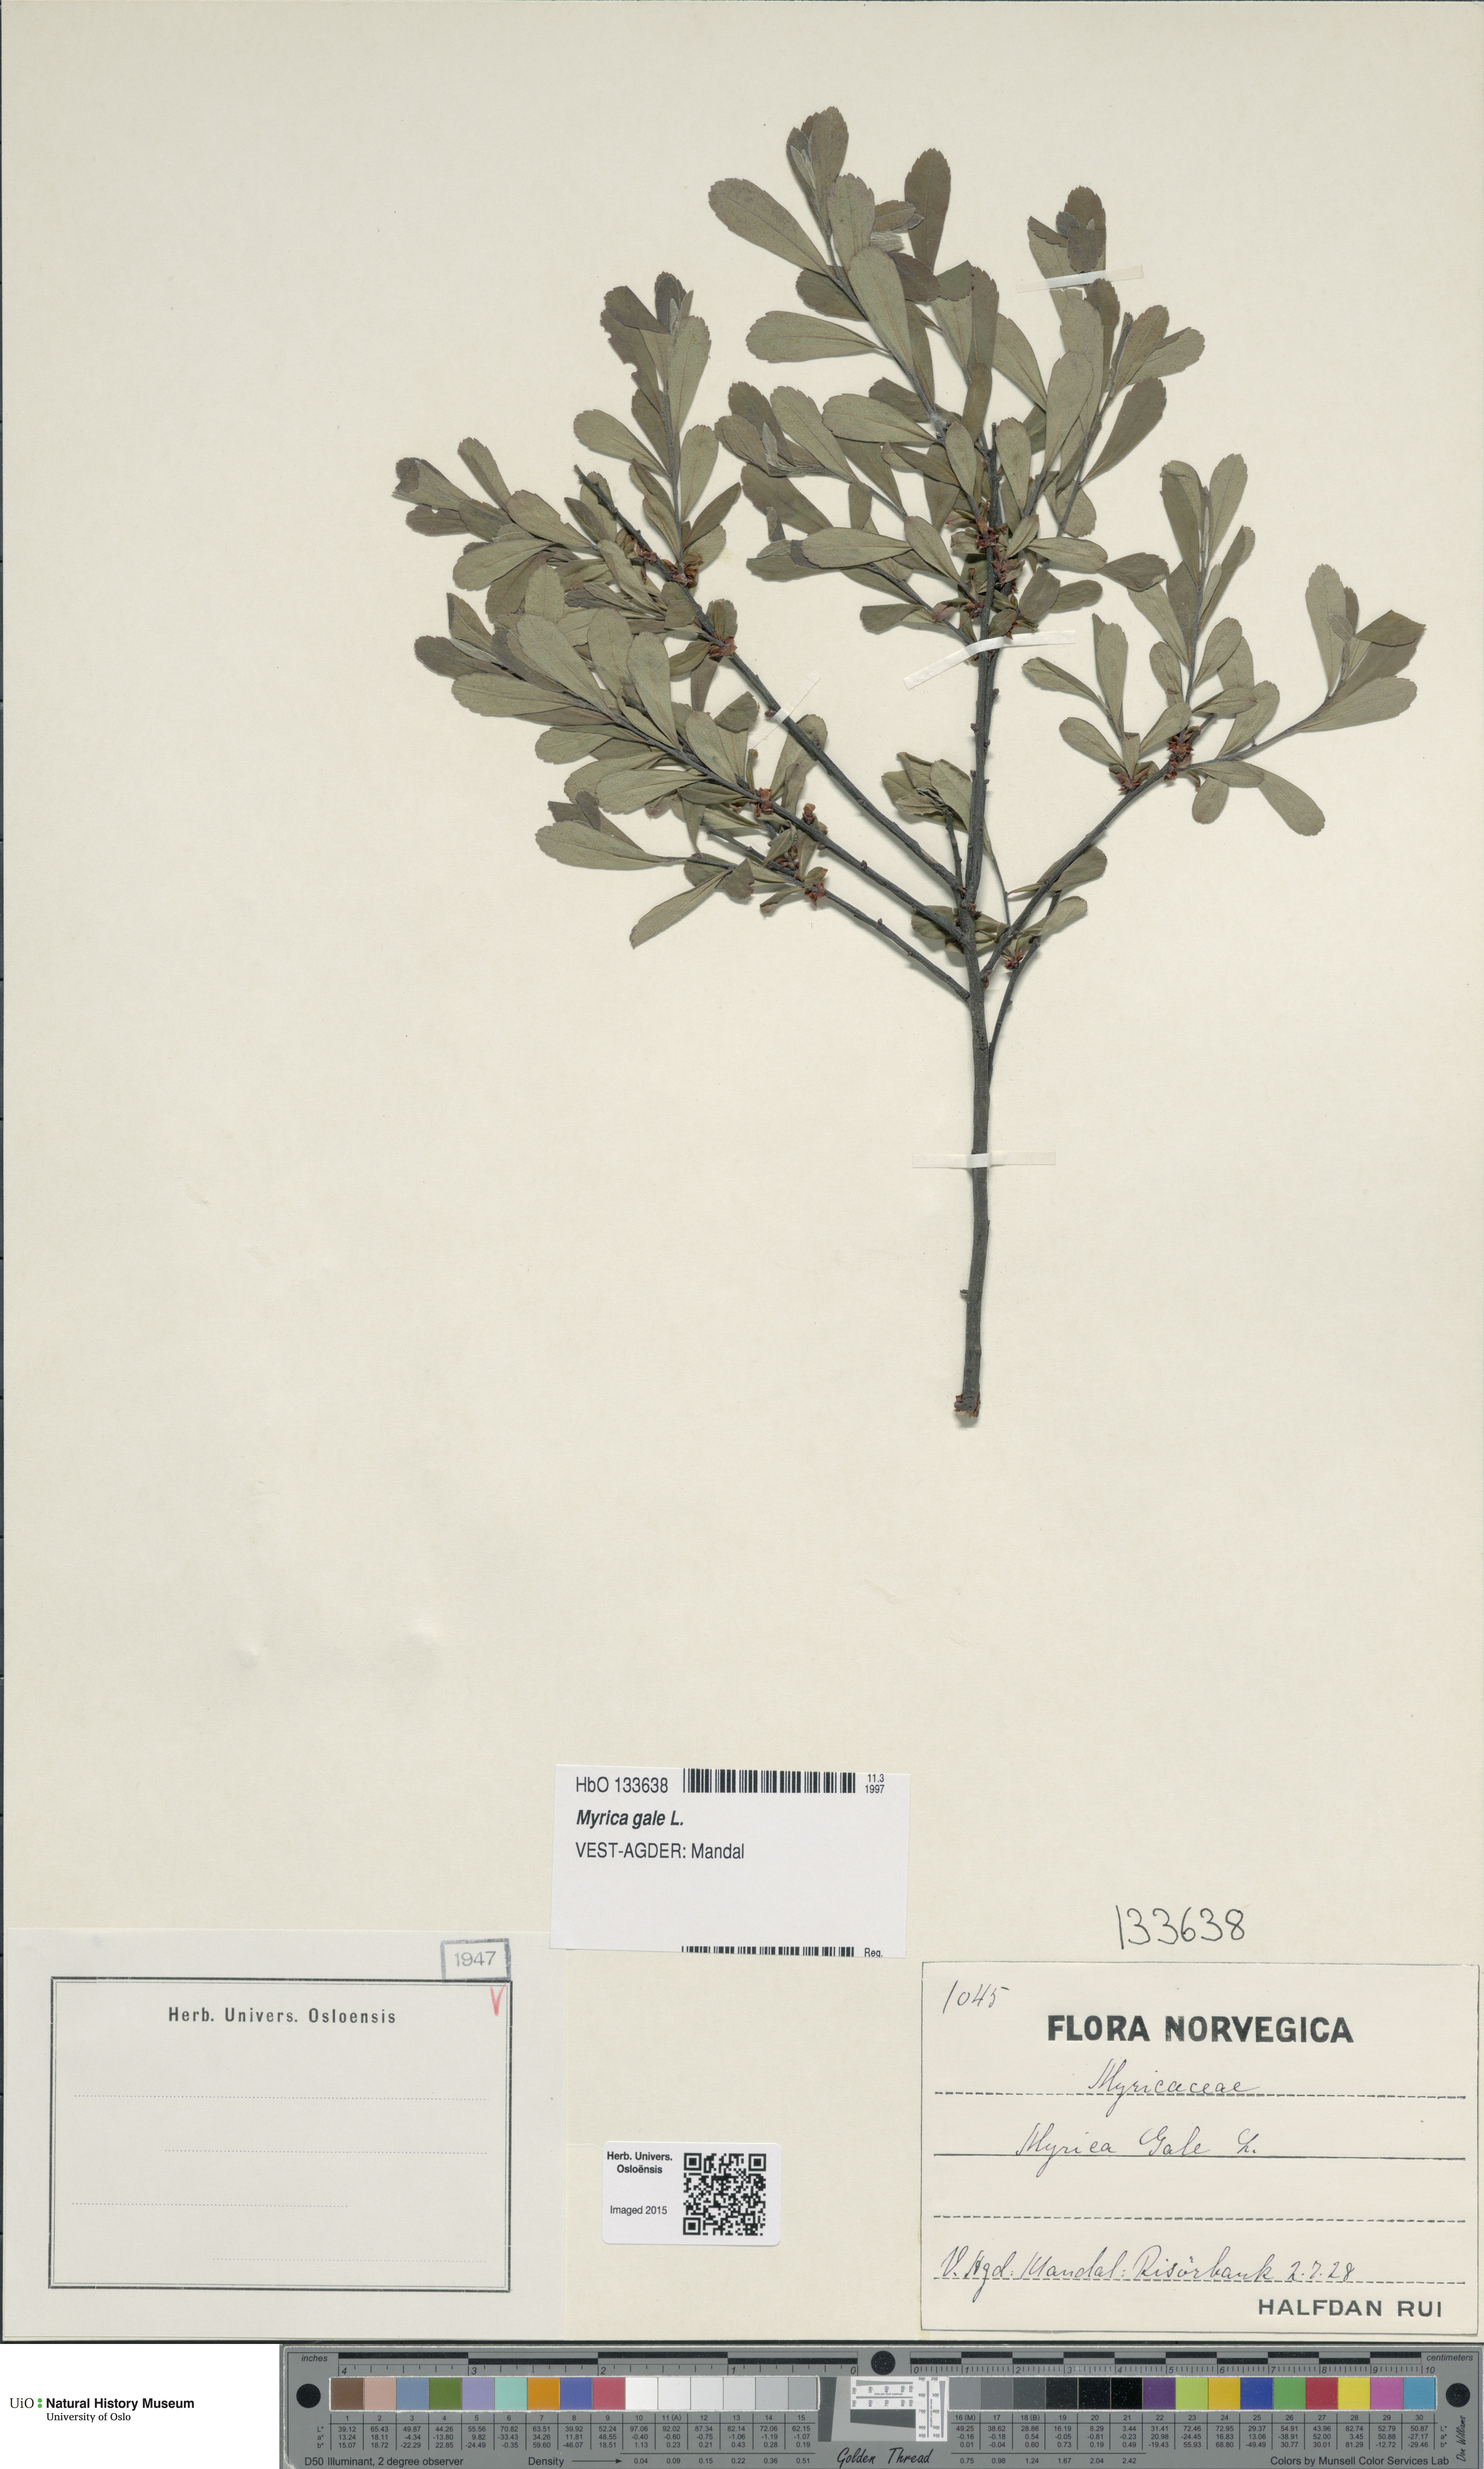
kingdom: Plantae
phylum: Tracheophyta
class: Magnoliopsida
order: Fagales
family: Myricaceae
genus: Myrica
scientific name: Myrica gale
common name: Sweet gale
